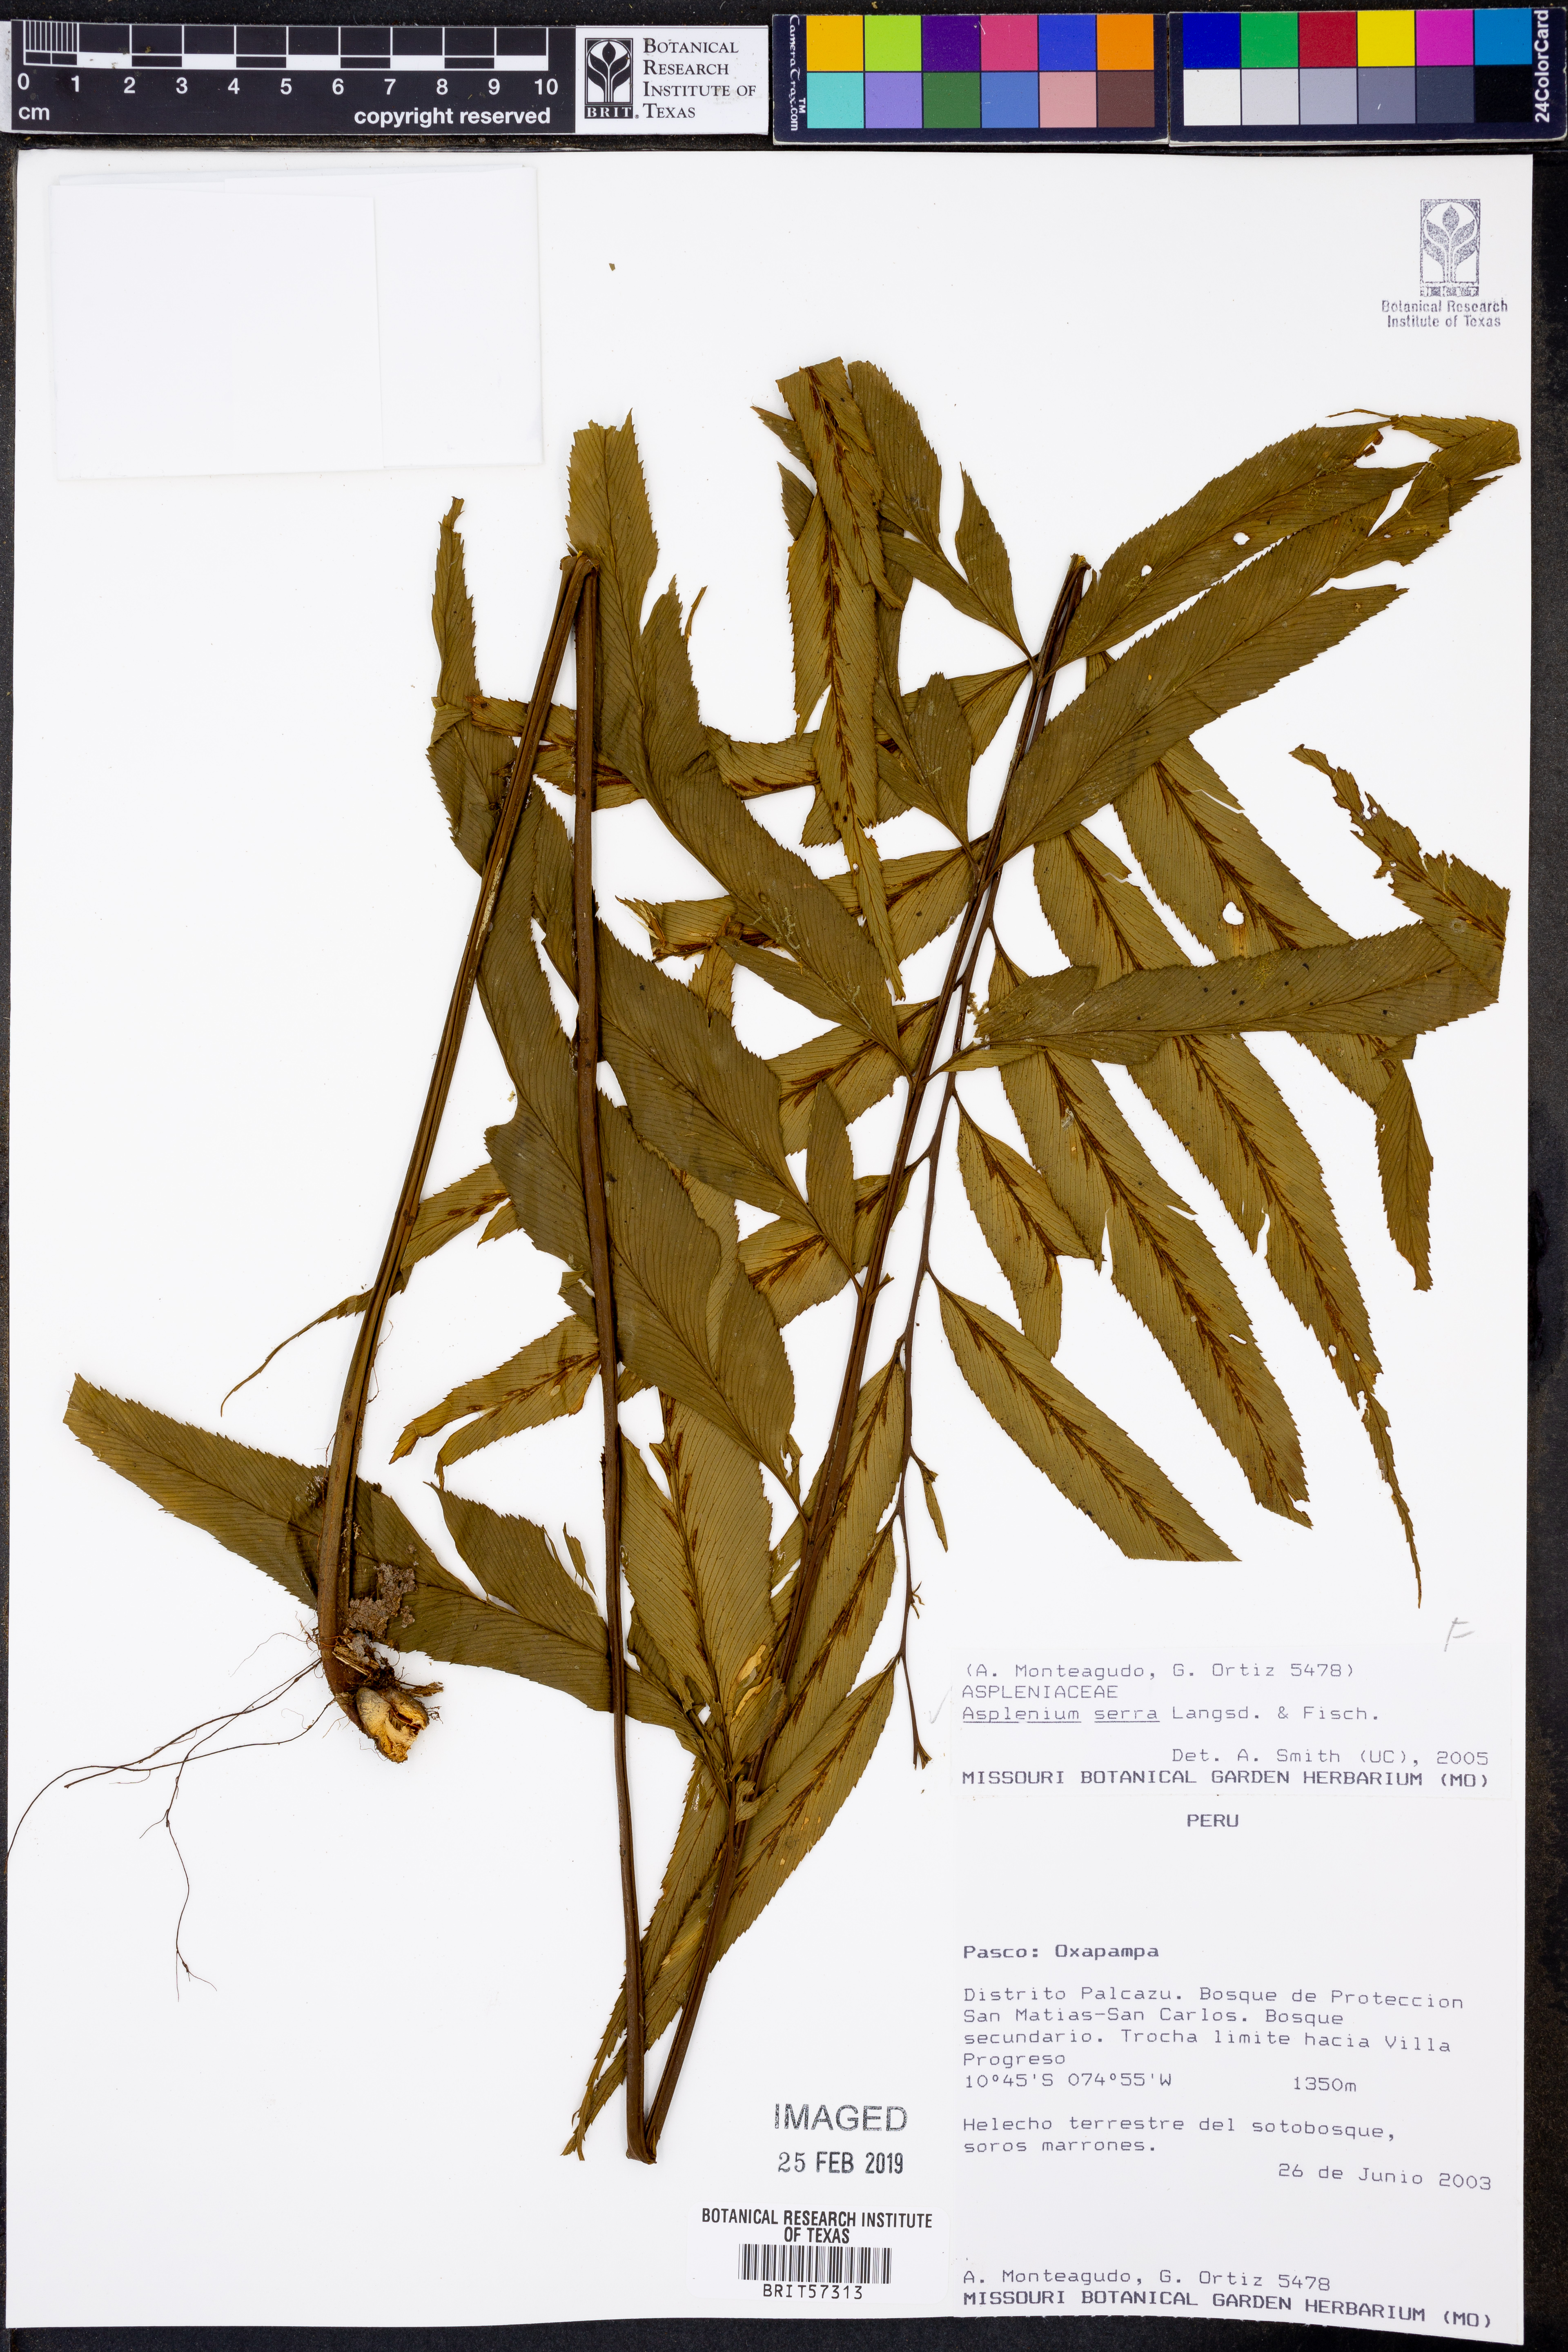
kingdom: Plantae
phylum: Tracheophyta
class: Polypodiopsida
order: Polypodiales
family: Aspleniaceae
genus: Asplenium
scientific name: Asplenium serra
